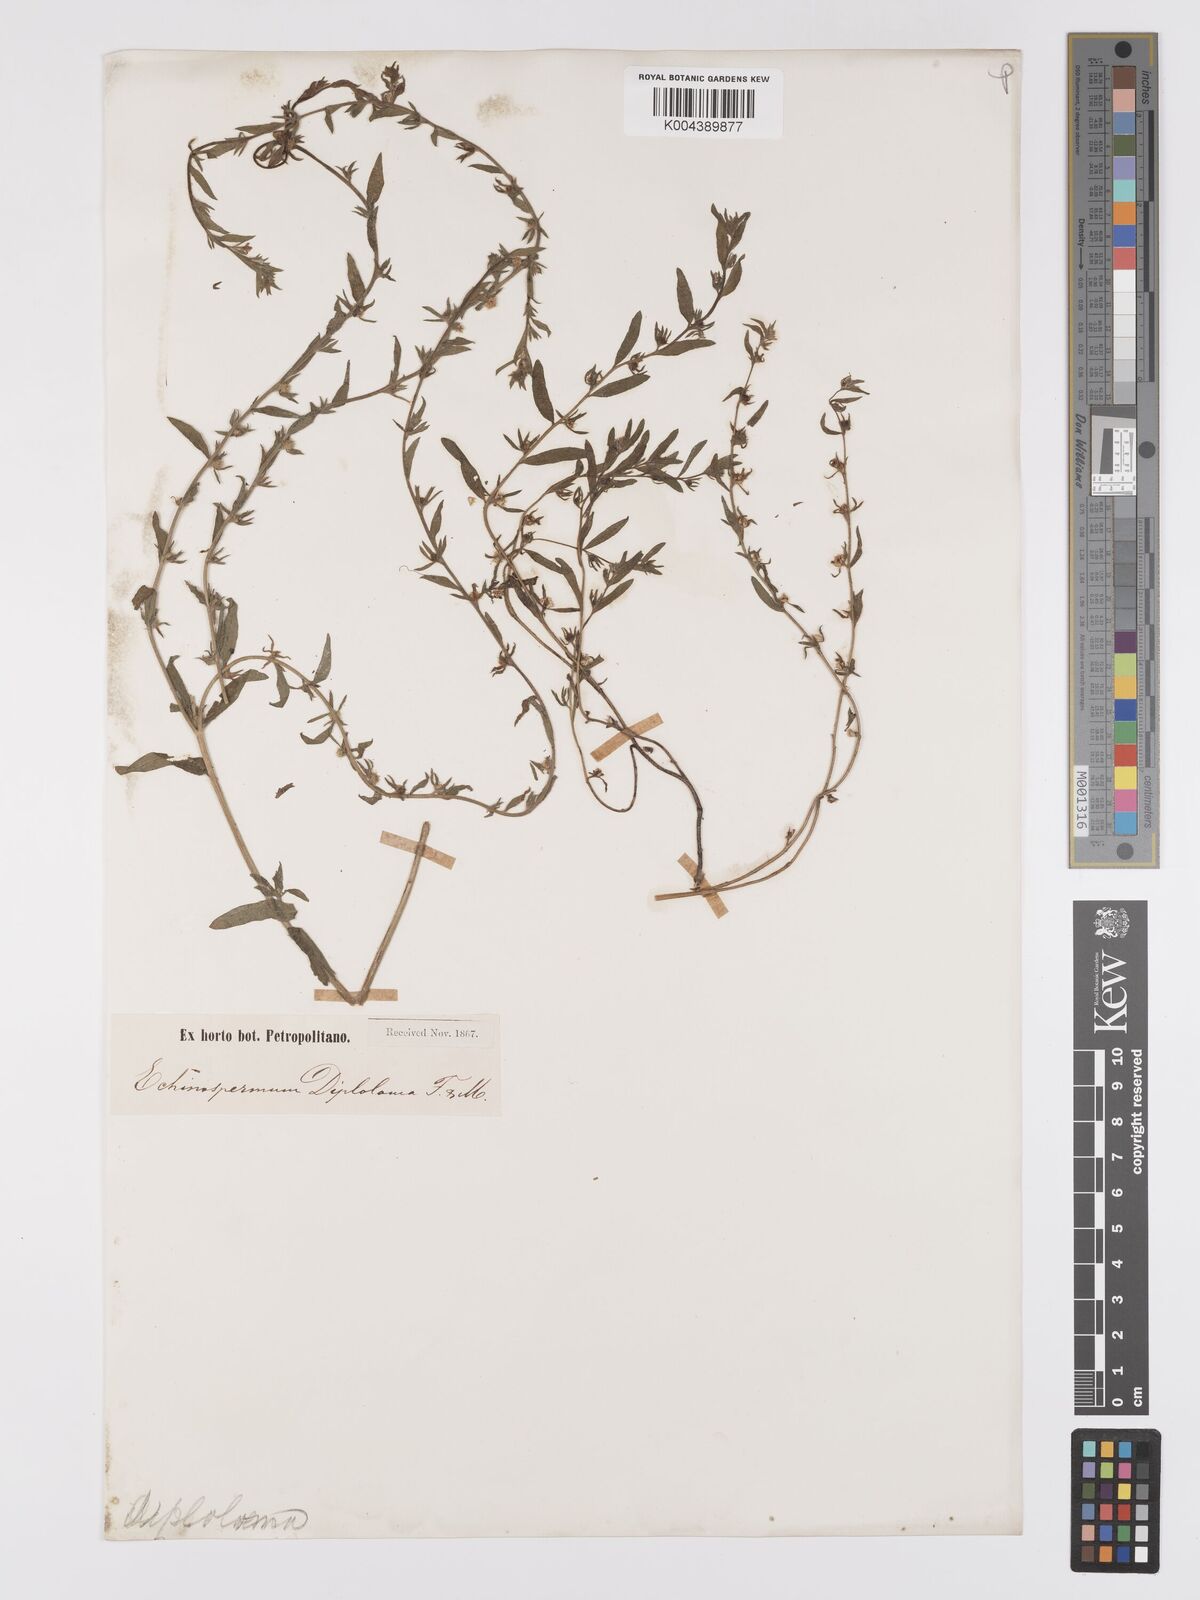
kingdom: Plantae
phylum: Tracheophyta
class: Magnoliopsida
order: Boraginales
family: Boraginaceae
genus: Lappula
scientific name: Lappula diploloma
